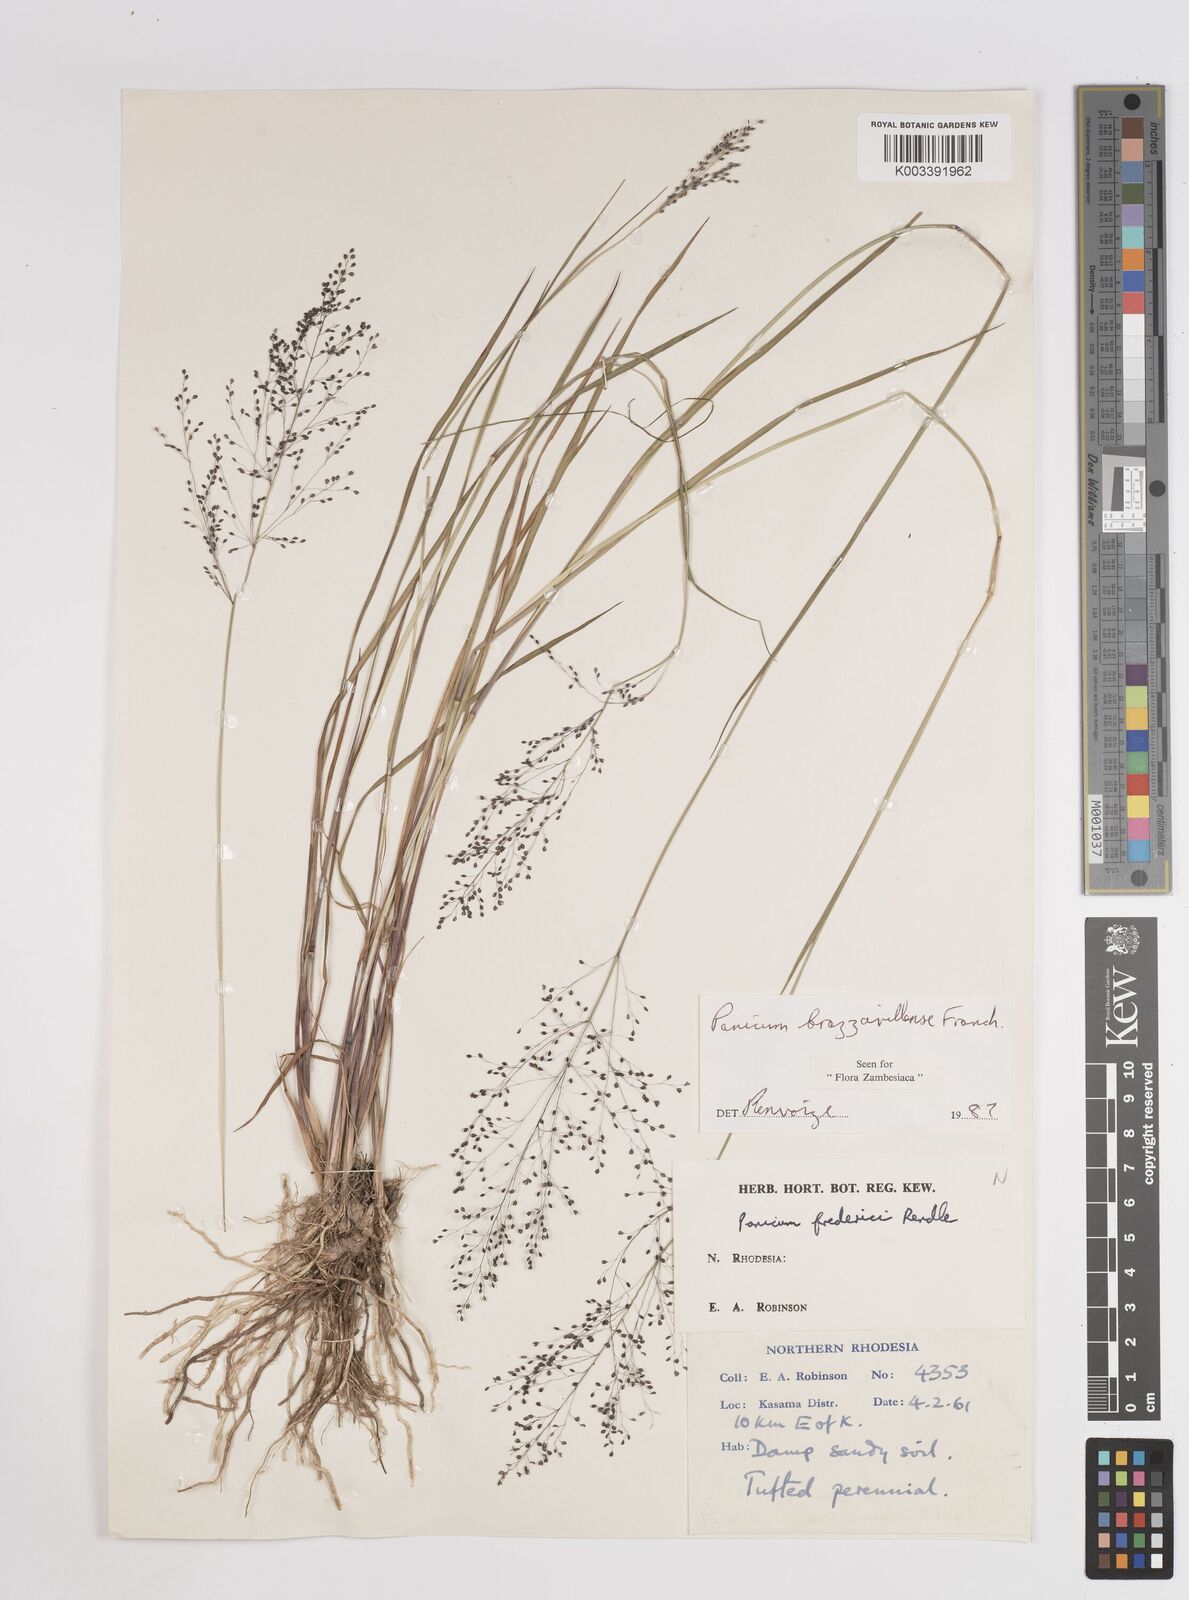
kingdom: Plantae
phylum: Tracheophyta
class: Liliopsida
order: Poales
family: Poaceae
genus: Trichanthecium
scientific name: Trichanthecium brazzavillense
